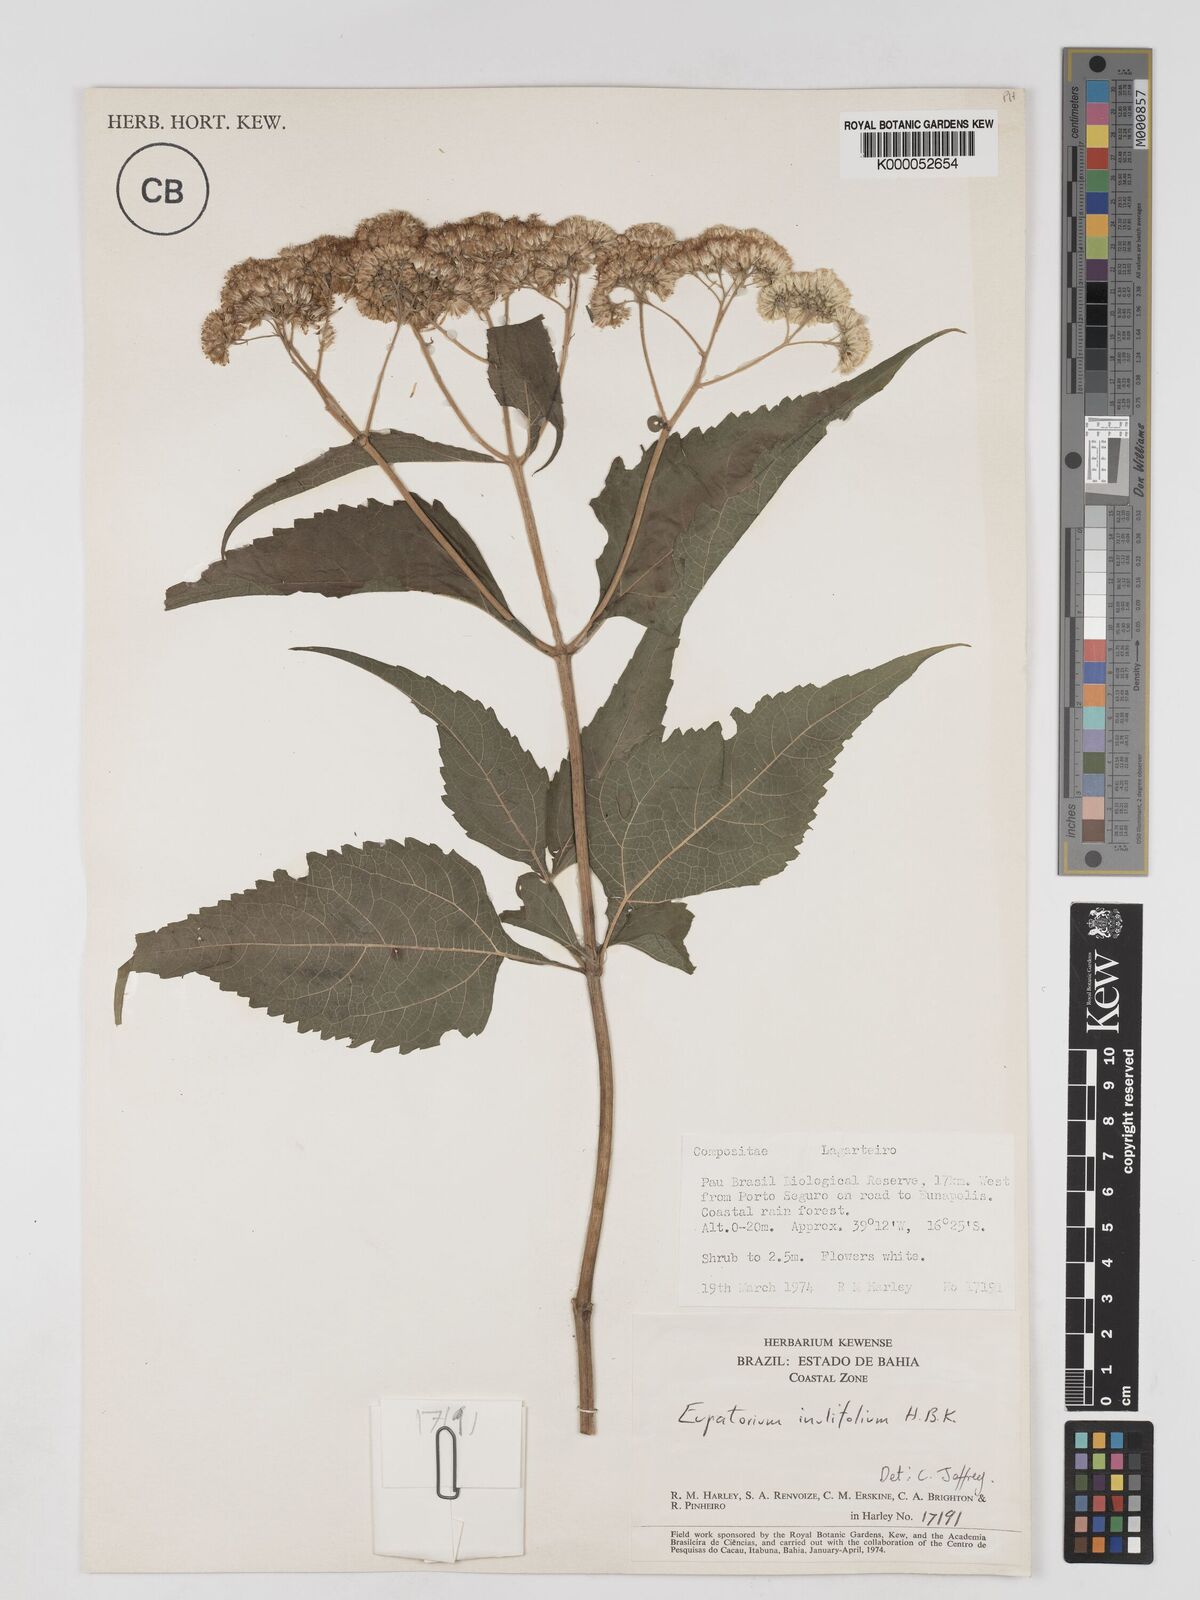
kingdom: Plantae
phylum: Tracheophyta
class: Magnoliopsida
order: Asterales
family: Asteraceae
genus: Austroeupatorium
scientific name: Austroeupatorium inulifolium
